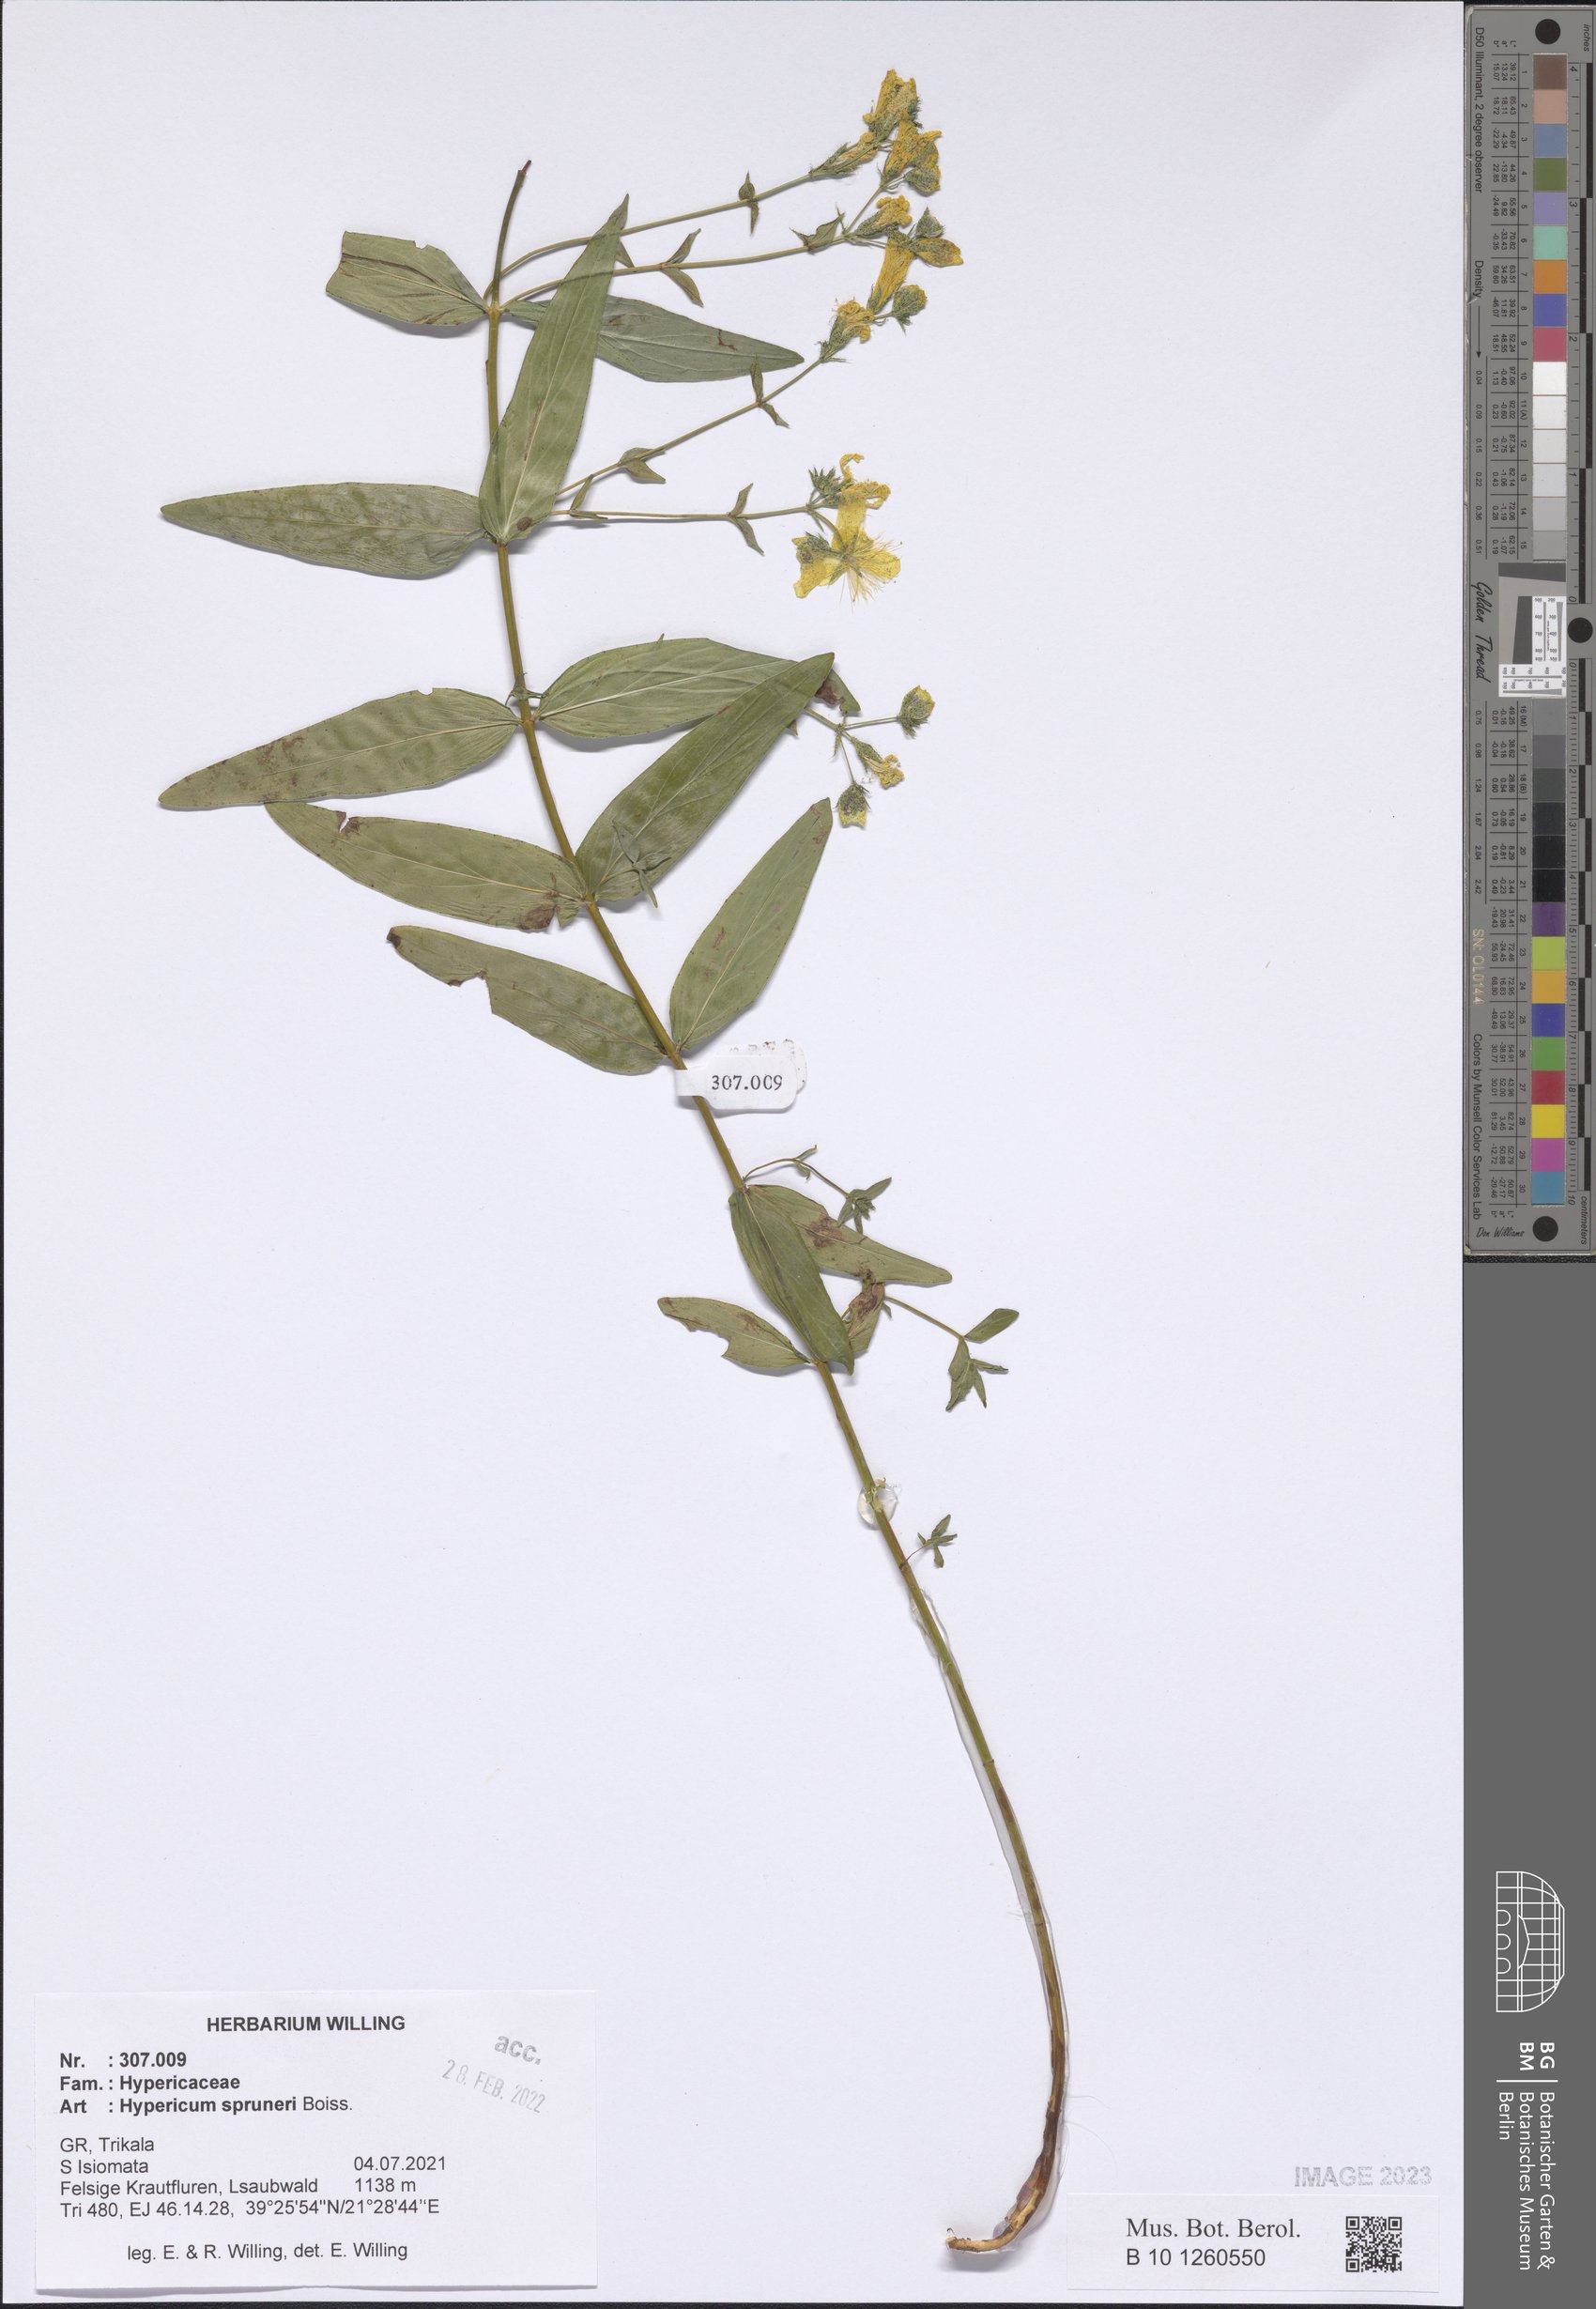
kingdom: Plantae
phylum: Tracheophyta
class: Magnoliopsida
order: Malpighiales
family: Hypericaceae
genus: Hypericum
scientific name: Hypericum spruneri
